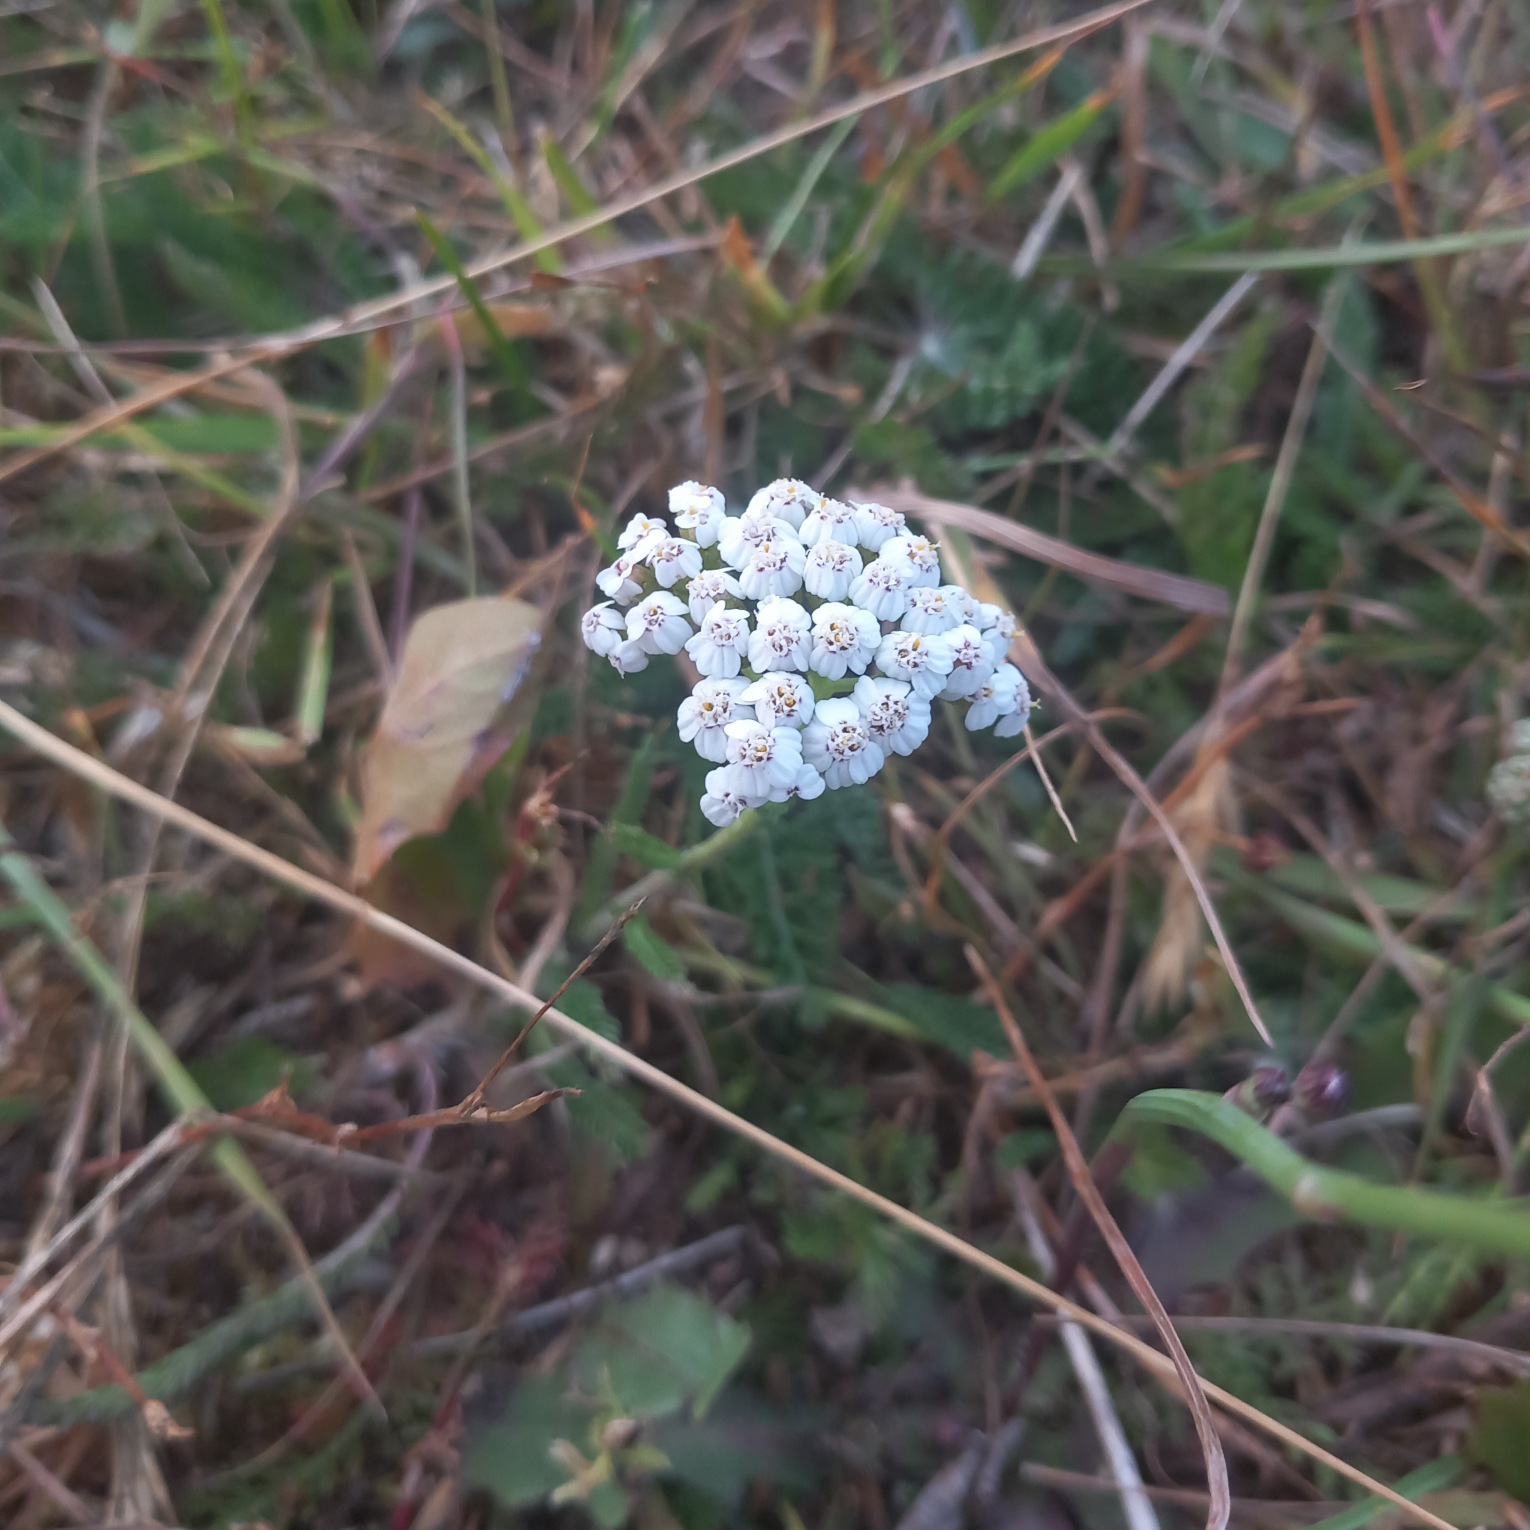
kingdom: Plantae
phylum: Tracheophyta
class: Magnoliopsida
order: Asterales
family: Asteraceae
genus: Achillea
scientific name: Achillea millefolium
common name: Almindelig røllike
